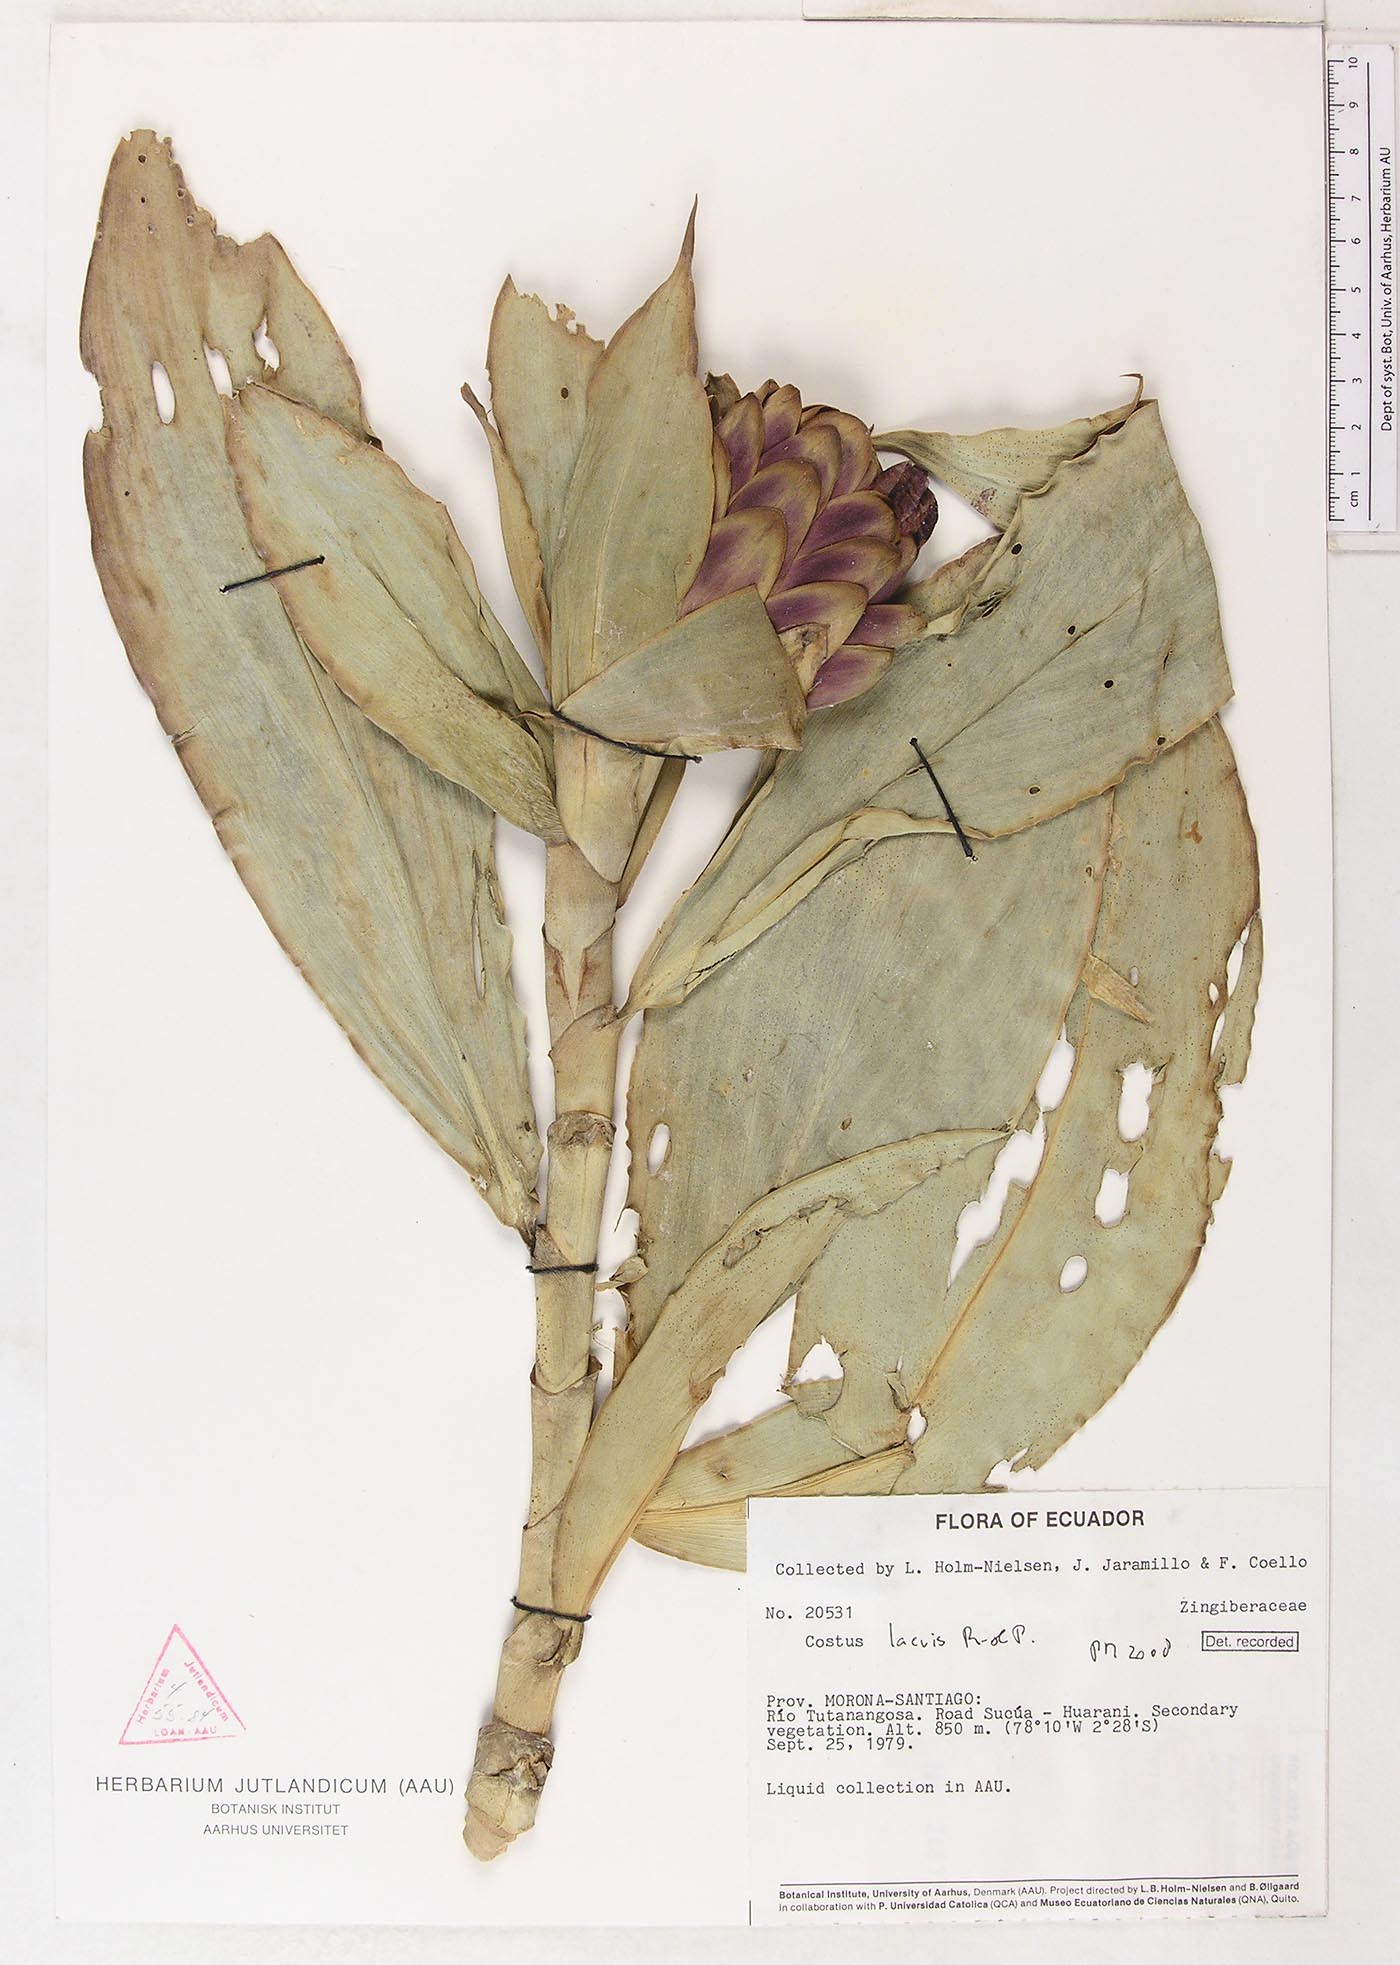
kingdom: Plantae
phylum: Tracheophyta
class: Liliopsida
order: Zingiberales
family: Costaceae
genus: Costus
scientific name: Costus laevis
